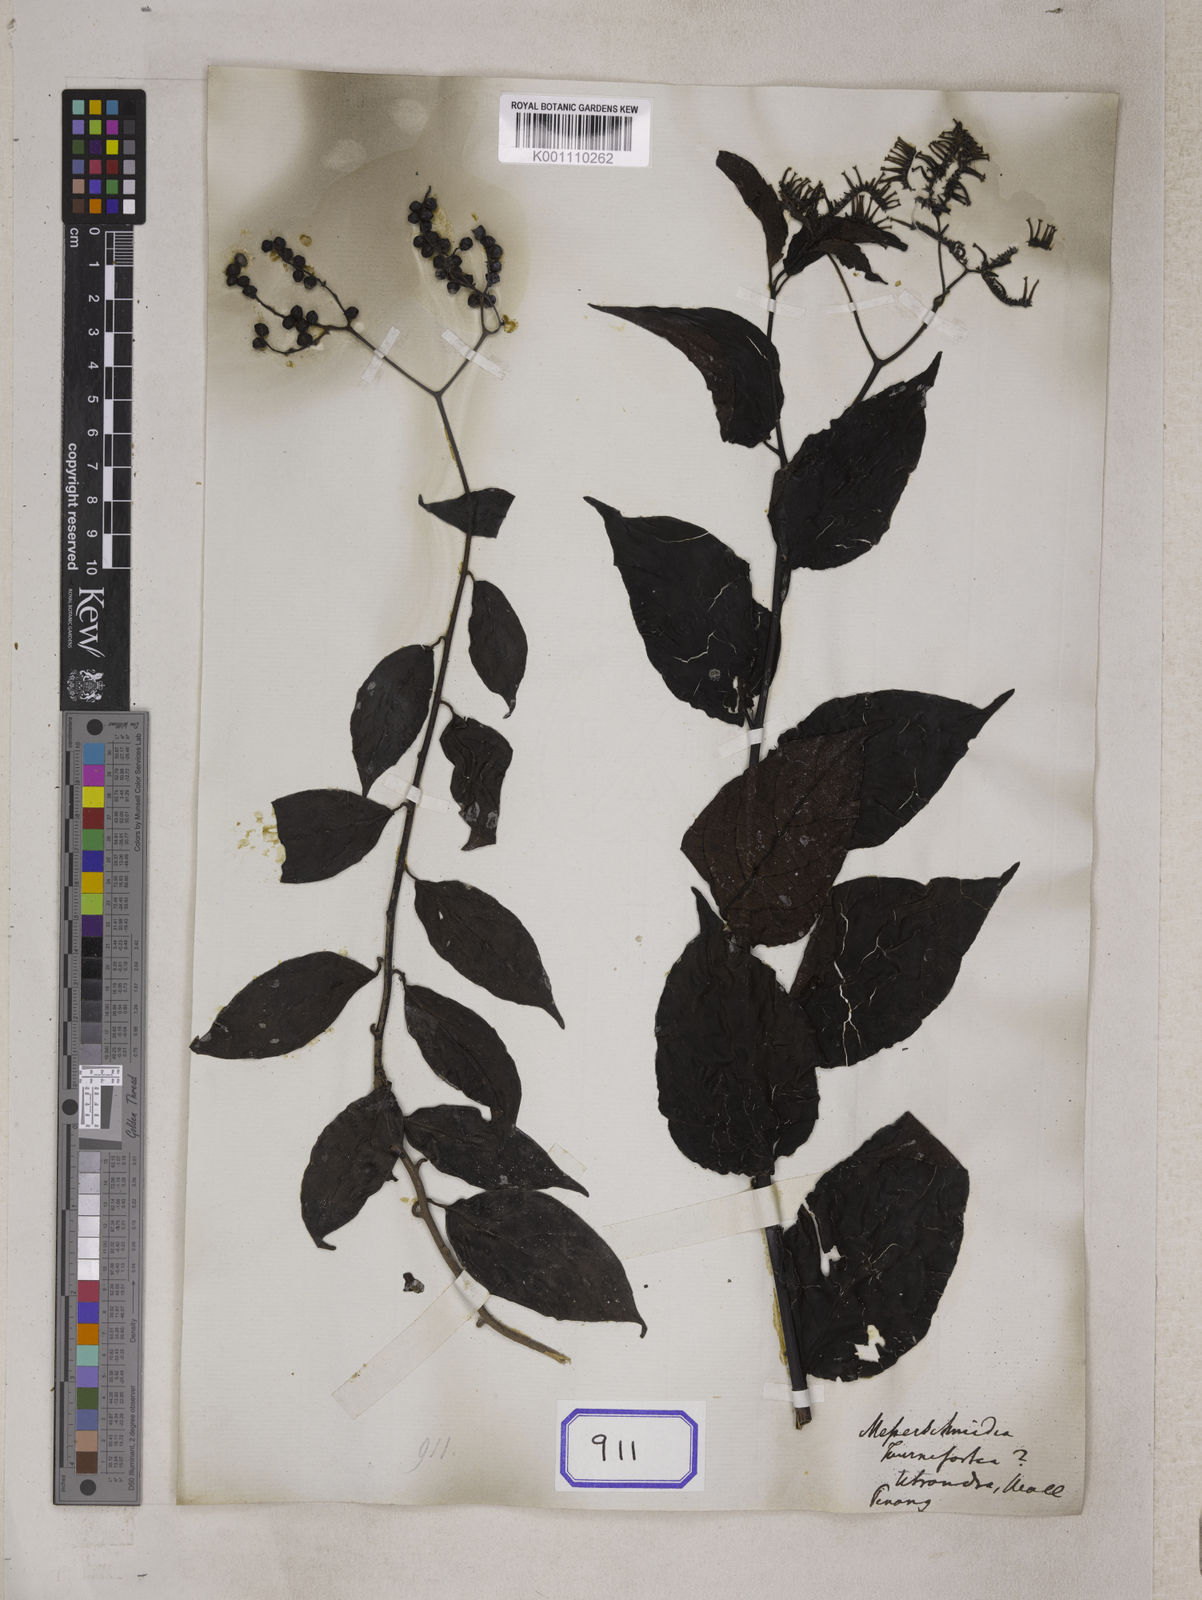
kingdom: Plantae
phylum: Tracheophyta
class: Magnoliopsida
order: Boraginales
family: Heliotropiaceae
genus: Heliotropium
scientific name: Heliotropium biblianum
